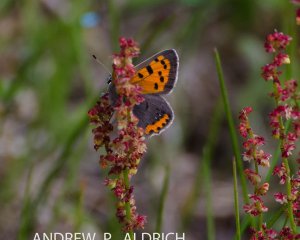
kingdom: Animalia
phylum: Arthropoda
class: Insecta
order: Lepidoptera
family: Lycaenidae
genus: Lycaena
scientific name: Lycaena phlaeas
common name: American Copper
